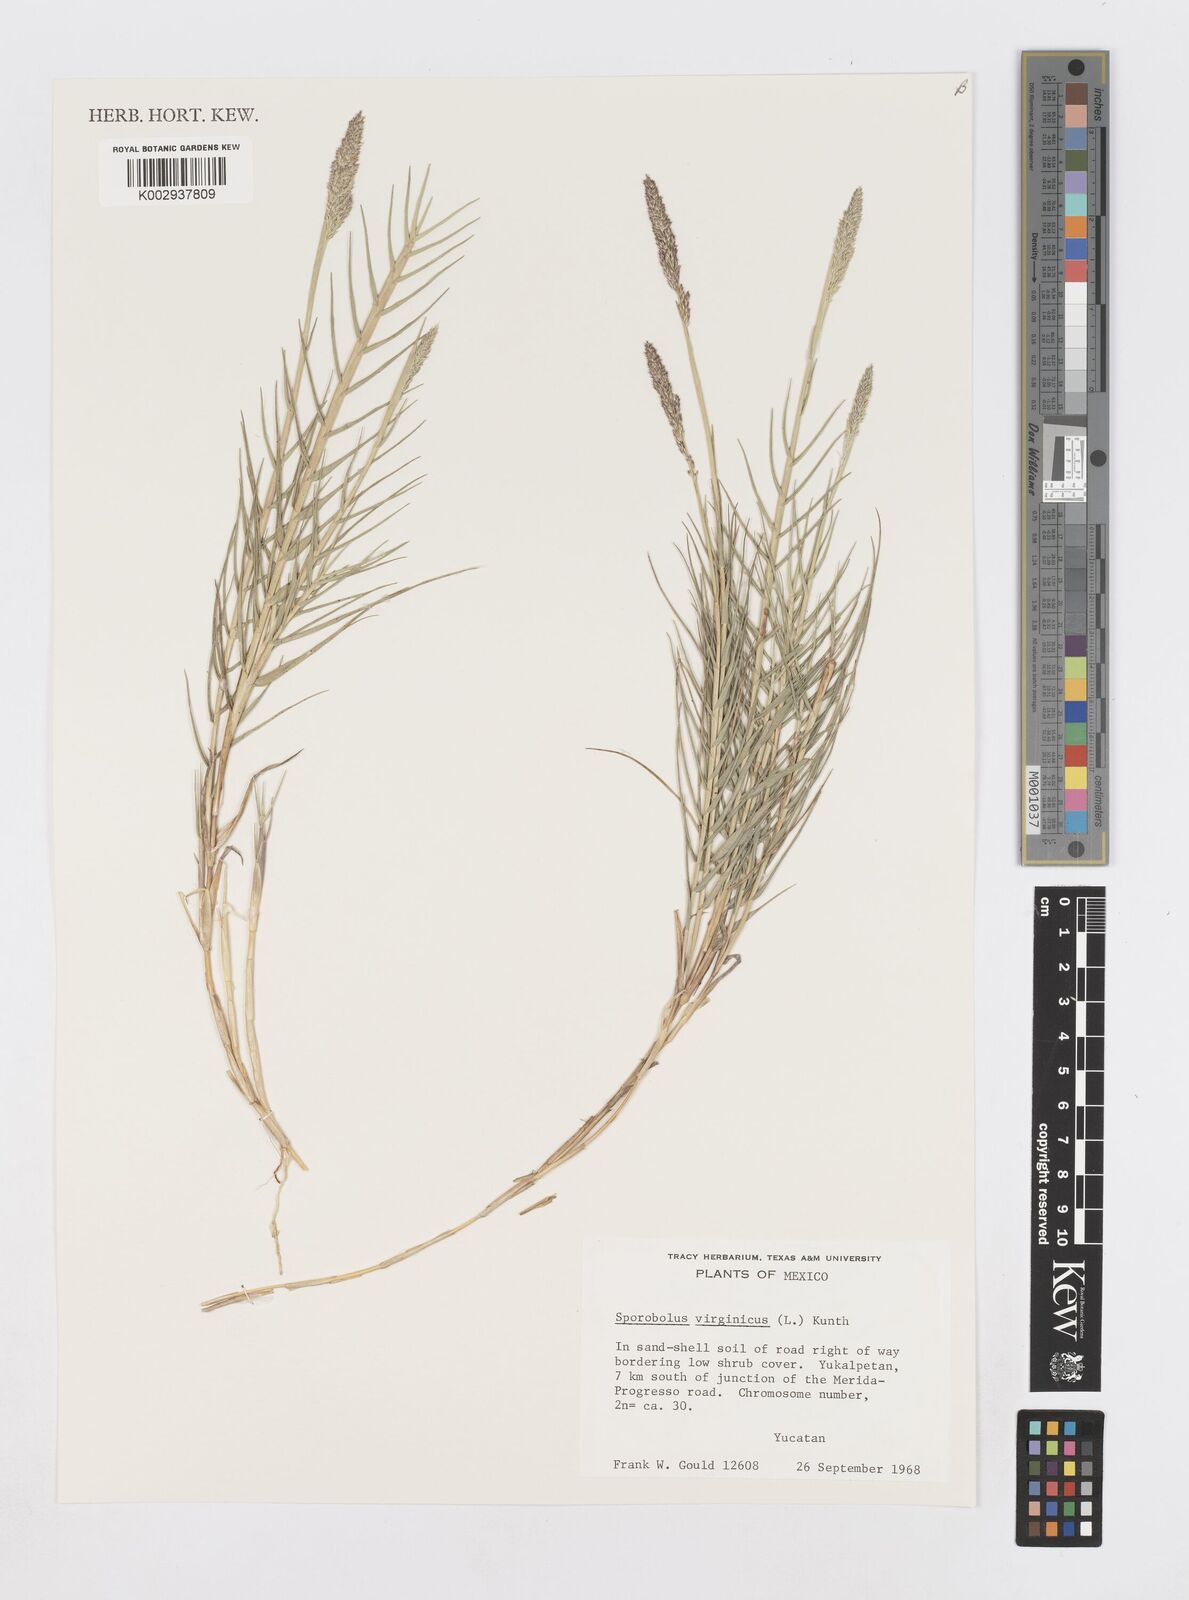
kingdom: Plantae
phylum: Tracheophyta
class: Liliopsida
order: Poales
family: Poaceae
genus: Sporobolus
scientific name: Sporobolus virginicus
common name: Beach dropseed
